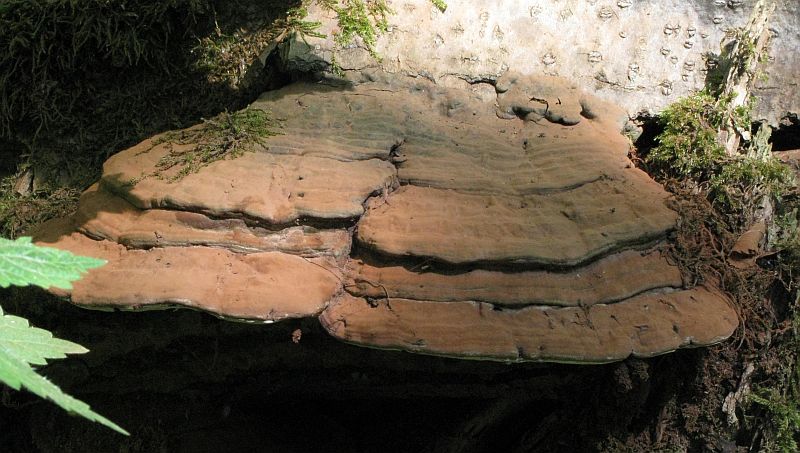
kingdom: Fungi
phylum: Basidiomycota
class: Agaricomycetes
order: Polyporales
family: Polyporaceae
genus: Ganoderma
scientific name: Ganoderma applanatum
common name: flad lakporesvamp
